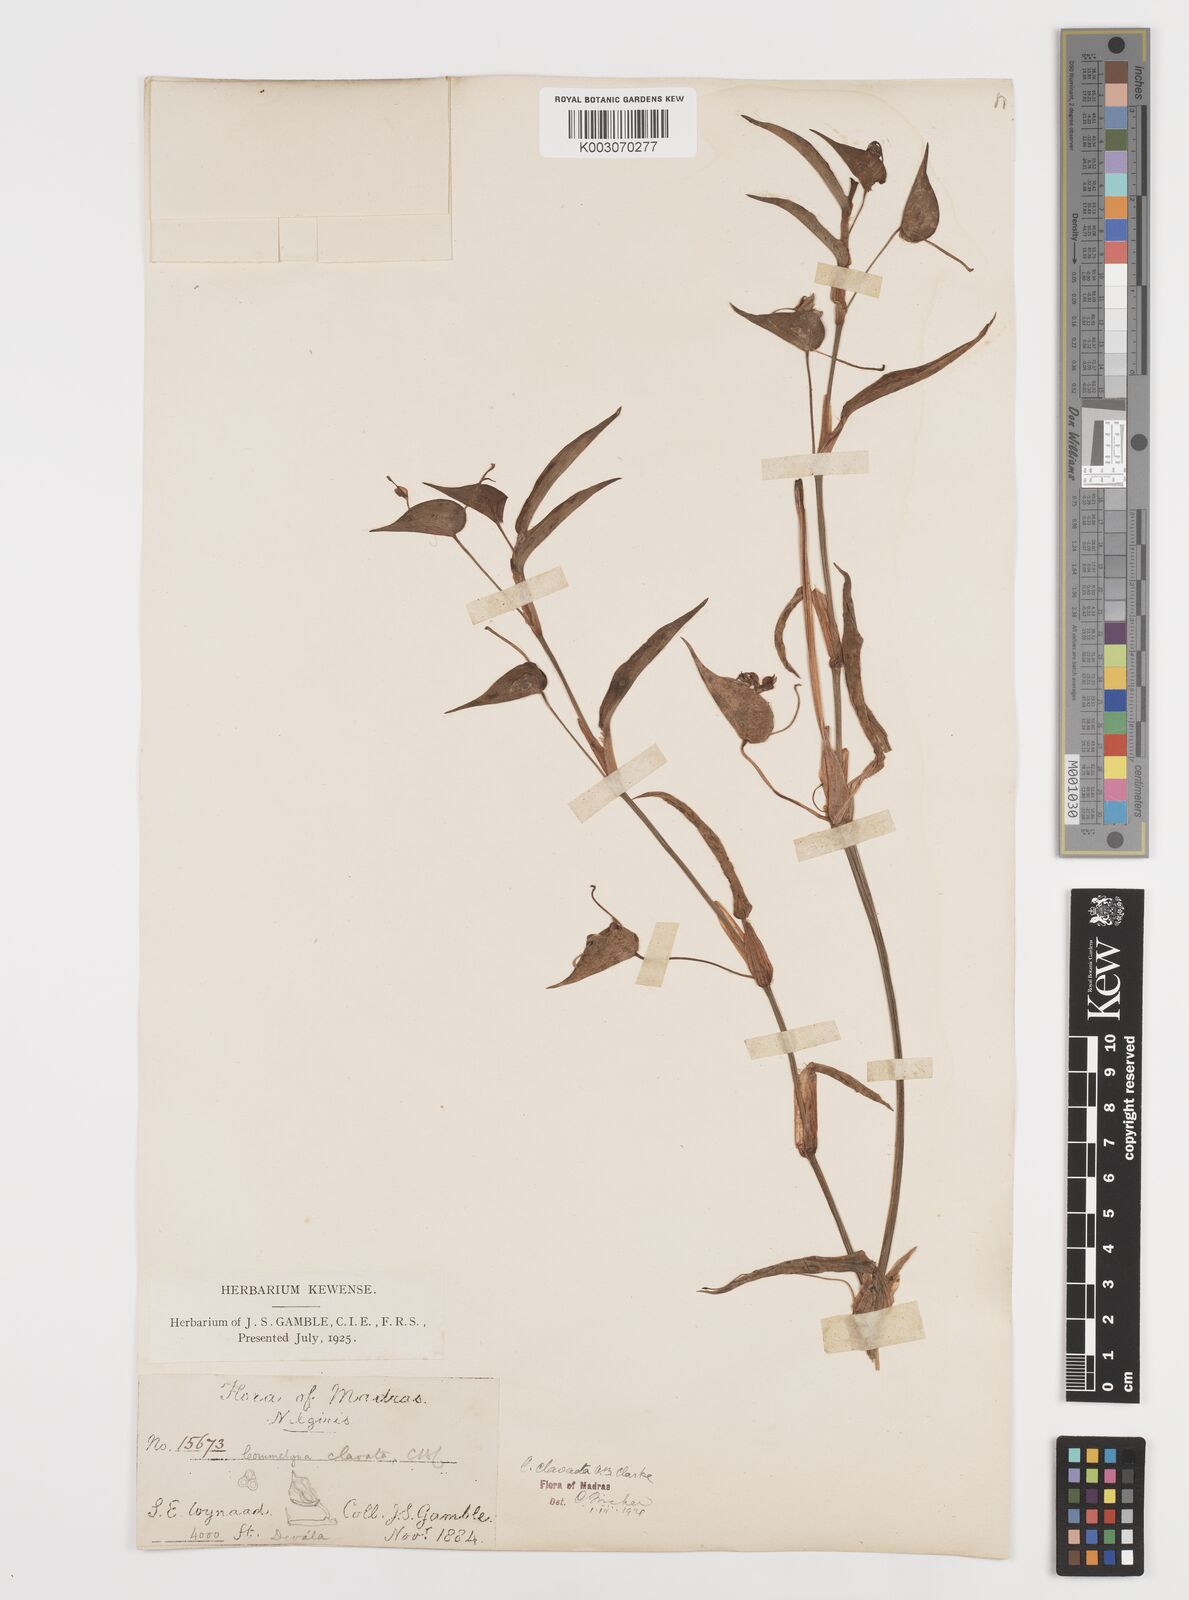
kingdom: Plantae
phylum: Tracheophyta
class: Liliopsida
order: Commelinales
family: Commelinaceae
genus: Commelina
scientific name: Commelina clavata
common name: Willow leaved dayflower
